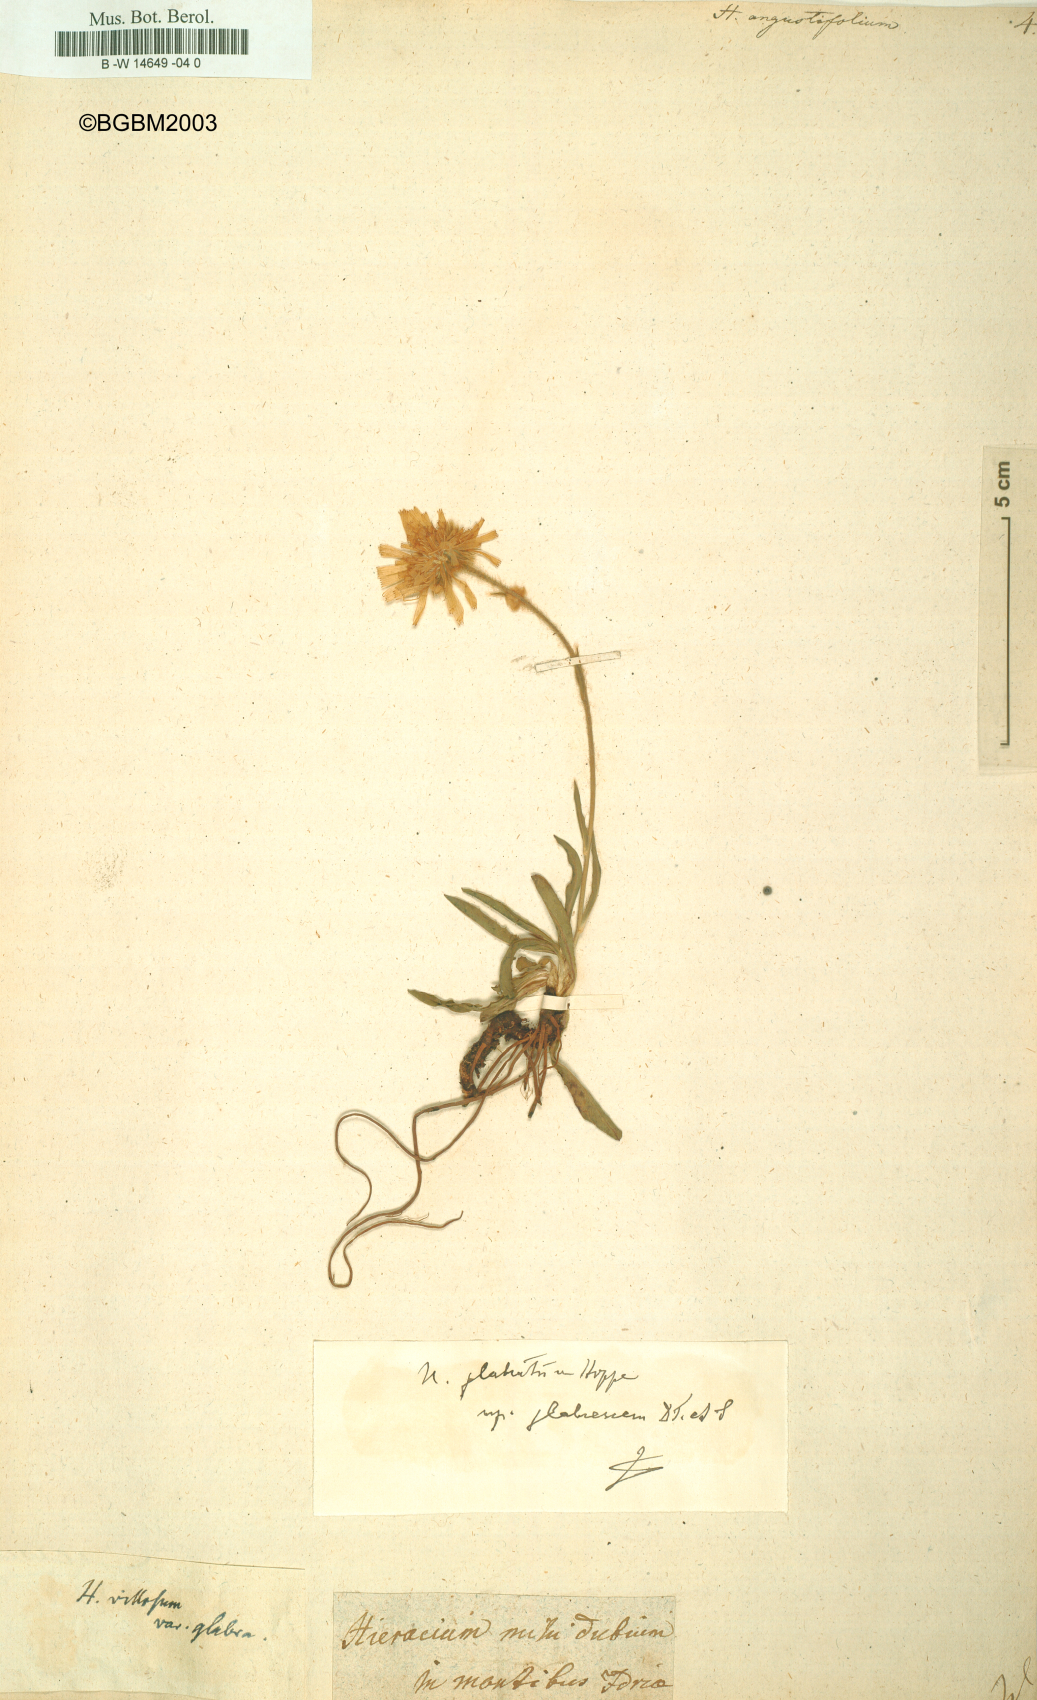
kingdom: Plantae
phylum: Tracheophyta
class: Magnoliopsida
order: Asterales
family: Asteraceae
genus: Hieracium
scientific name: Hieracium angustifolium
